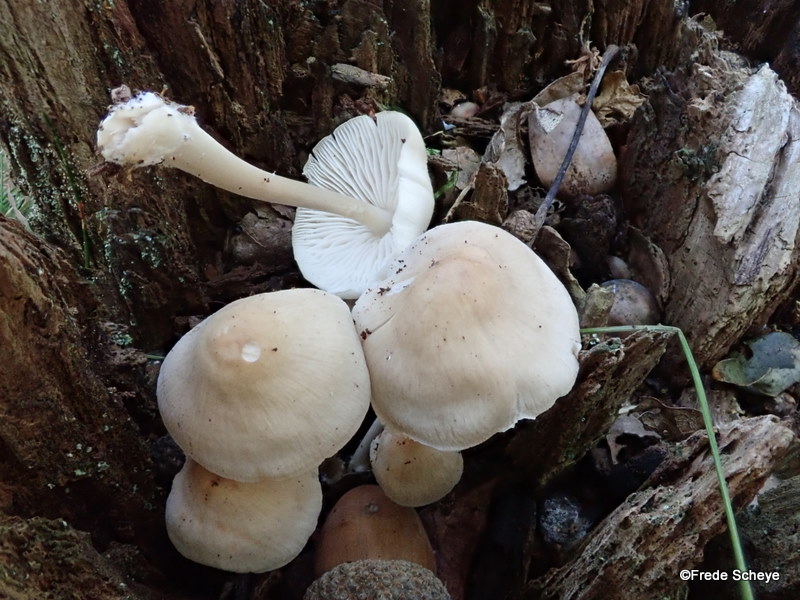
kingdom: Fungi
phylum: Basidiomycota
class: Agaricomycetes
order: Agaricales
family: Mycenaceae
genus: Mycena
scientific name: Mycena galericulata
